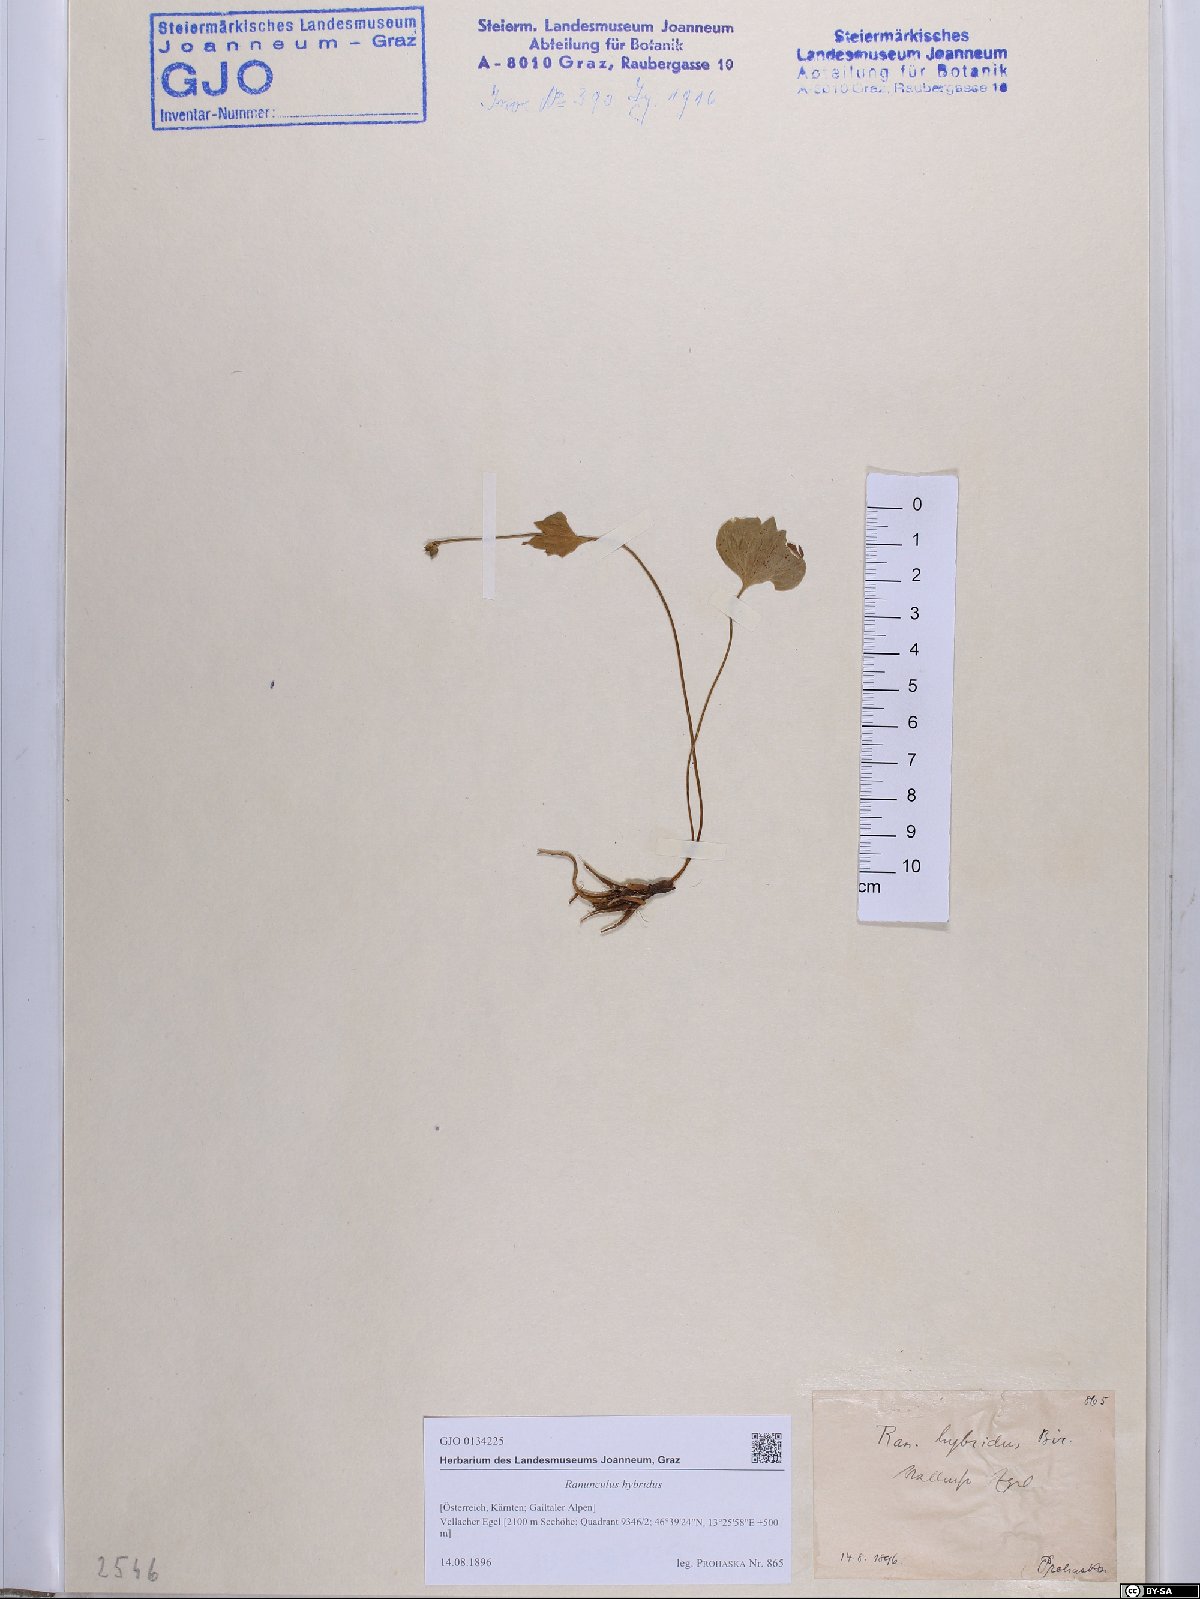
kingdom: Plantae
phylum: Tracheophyta
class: Magnoliopsida
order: Ranunculales
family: Ranunculaceae
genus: Ranunculus
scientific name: Ranunculus hybridus
